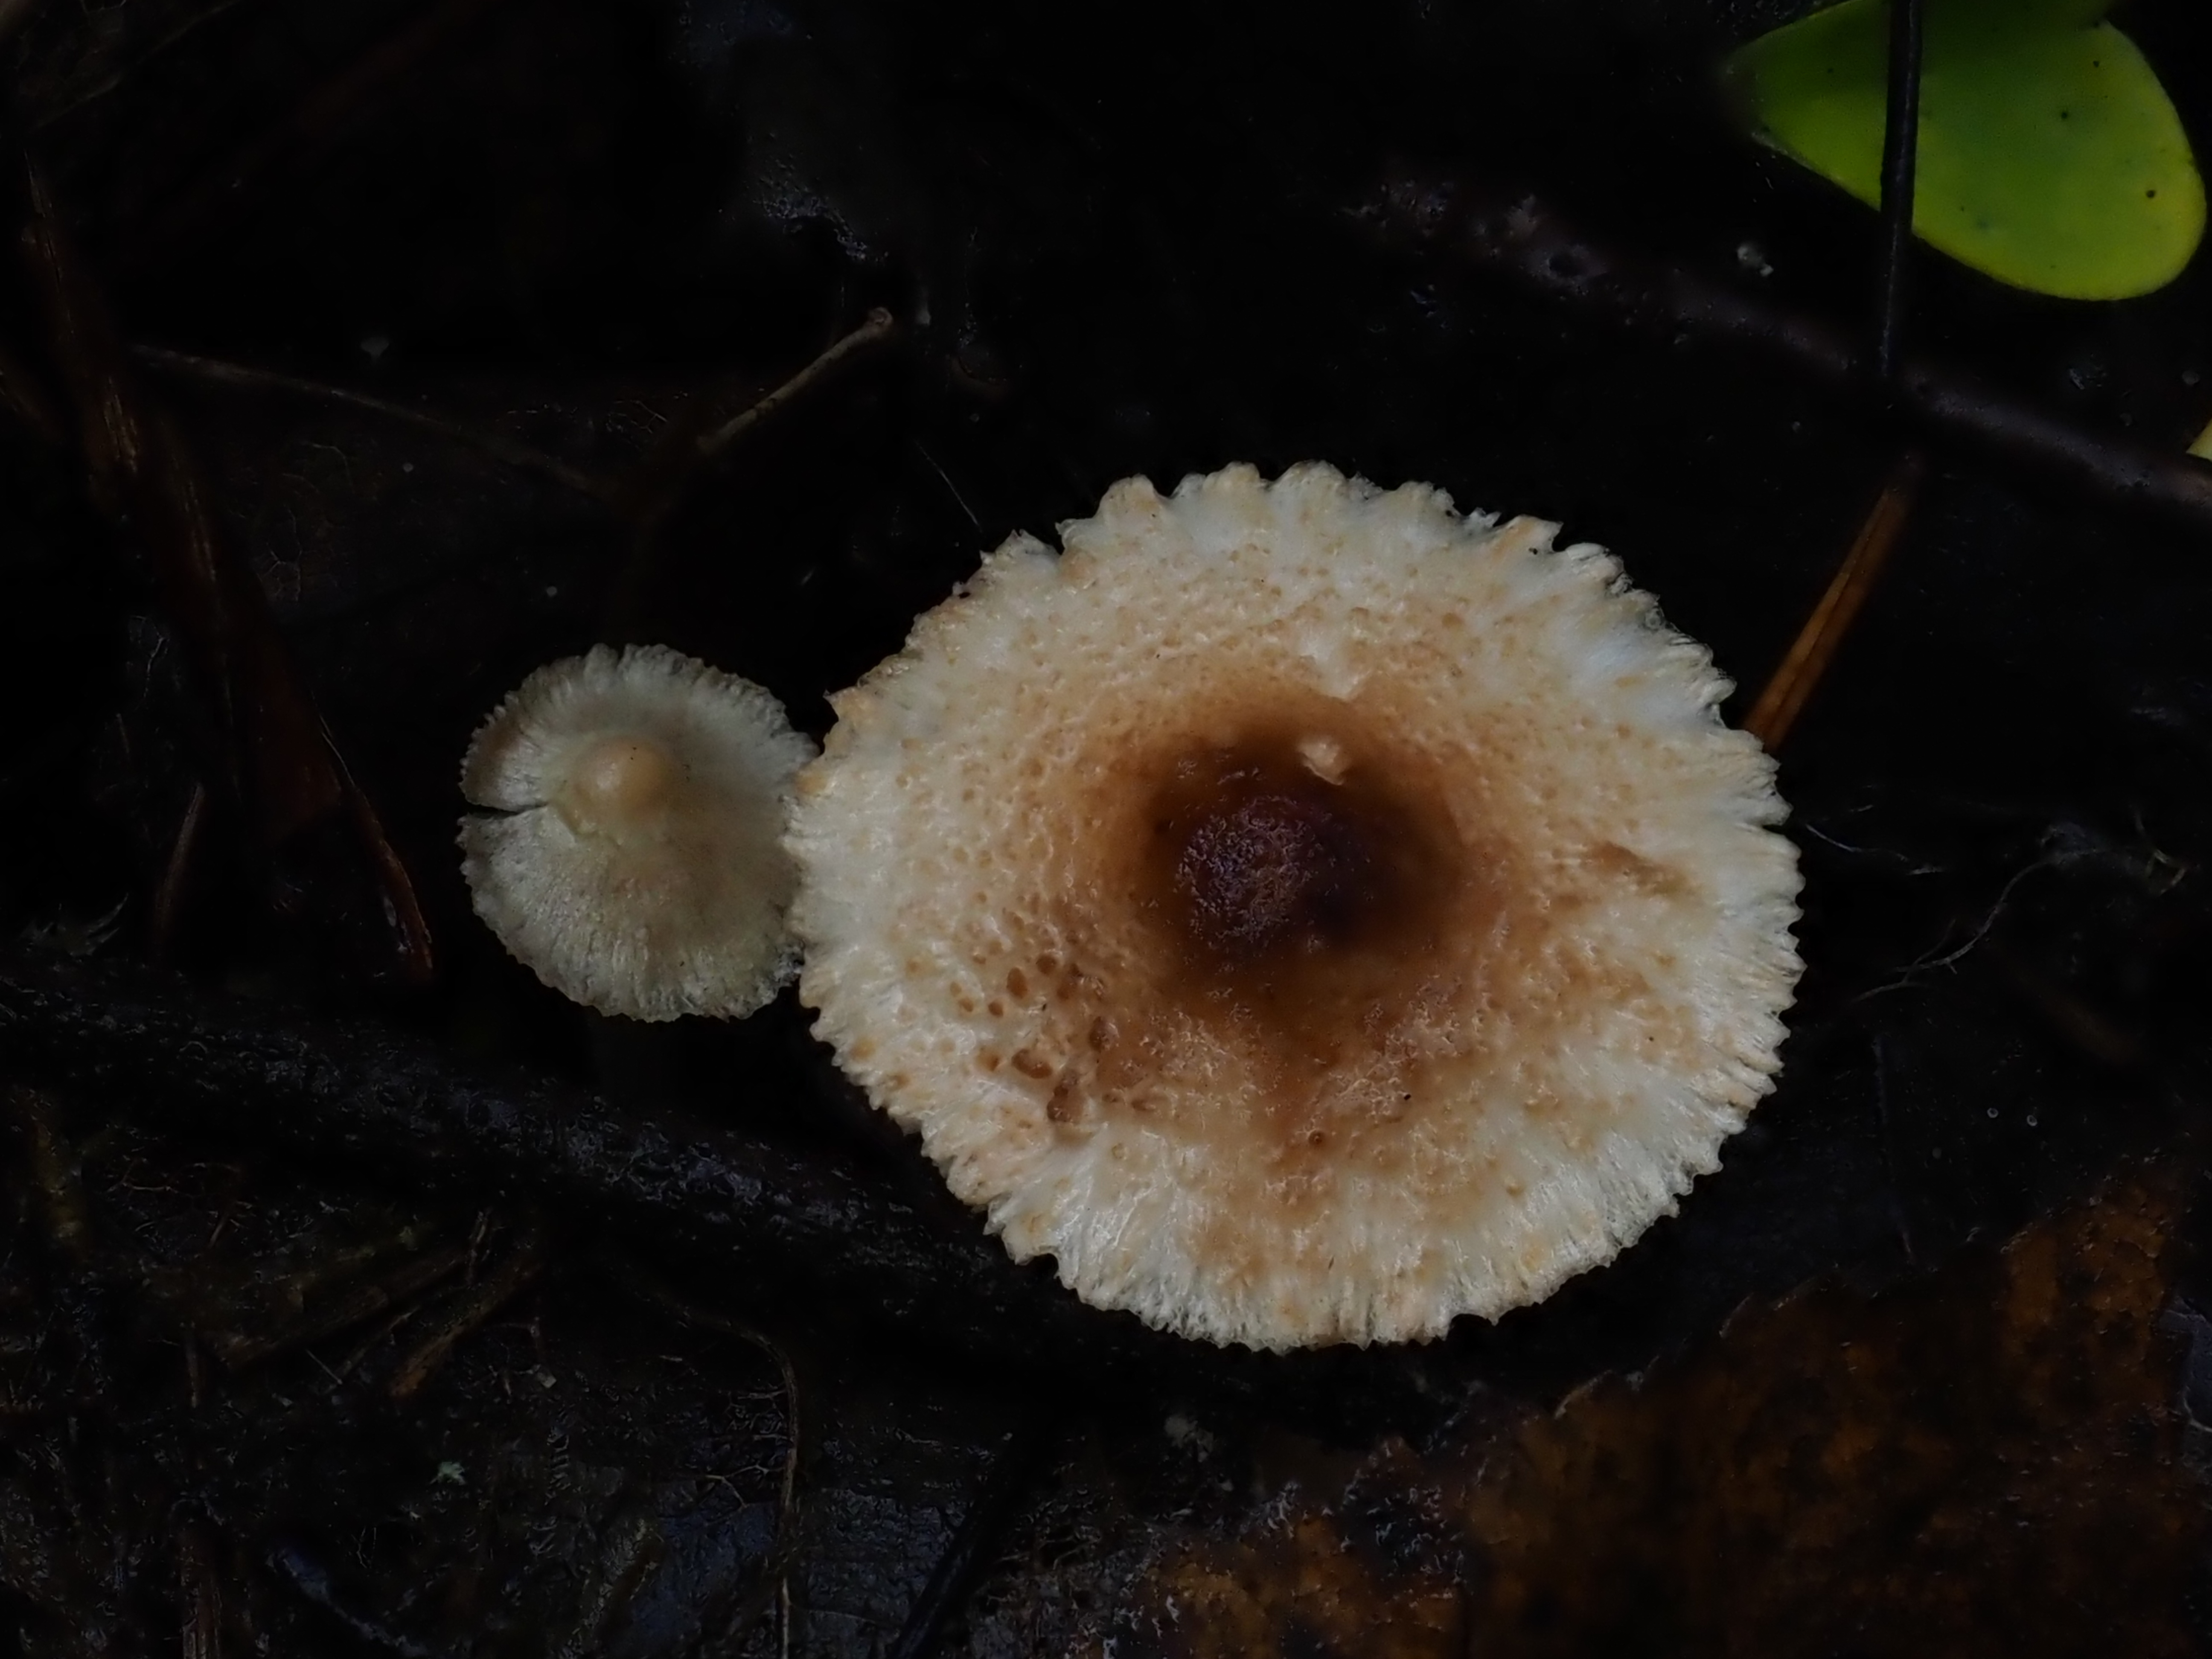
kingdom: Fungi
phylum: Basidiomycota
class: Agaricomycetes
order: Agaricales
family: Agaricaceae
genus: Lepiota
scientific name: Lepiota magnispora
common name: Yellowfoot dapperling
